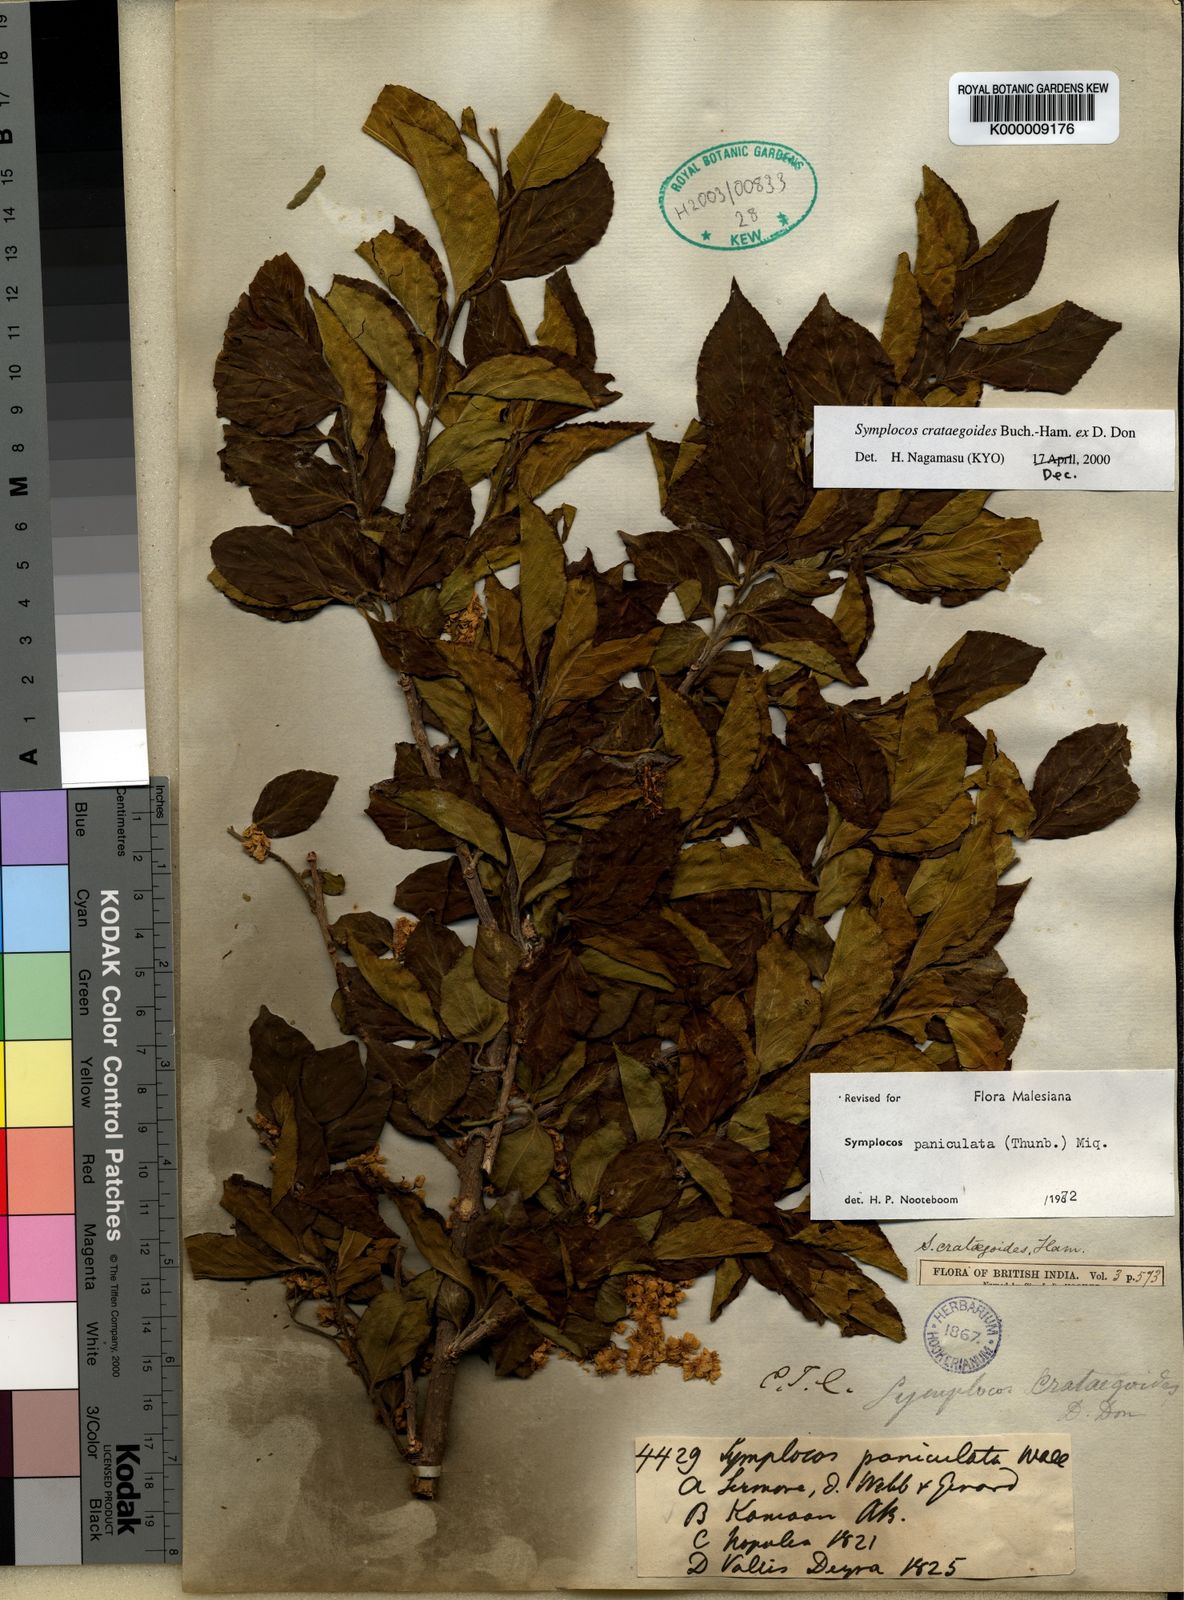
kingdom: Plantae
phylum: Tracheophyta
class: Magnoliopsida
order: Ericales
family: Symplocaceae
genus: Symplocos
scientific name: Symplocos
